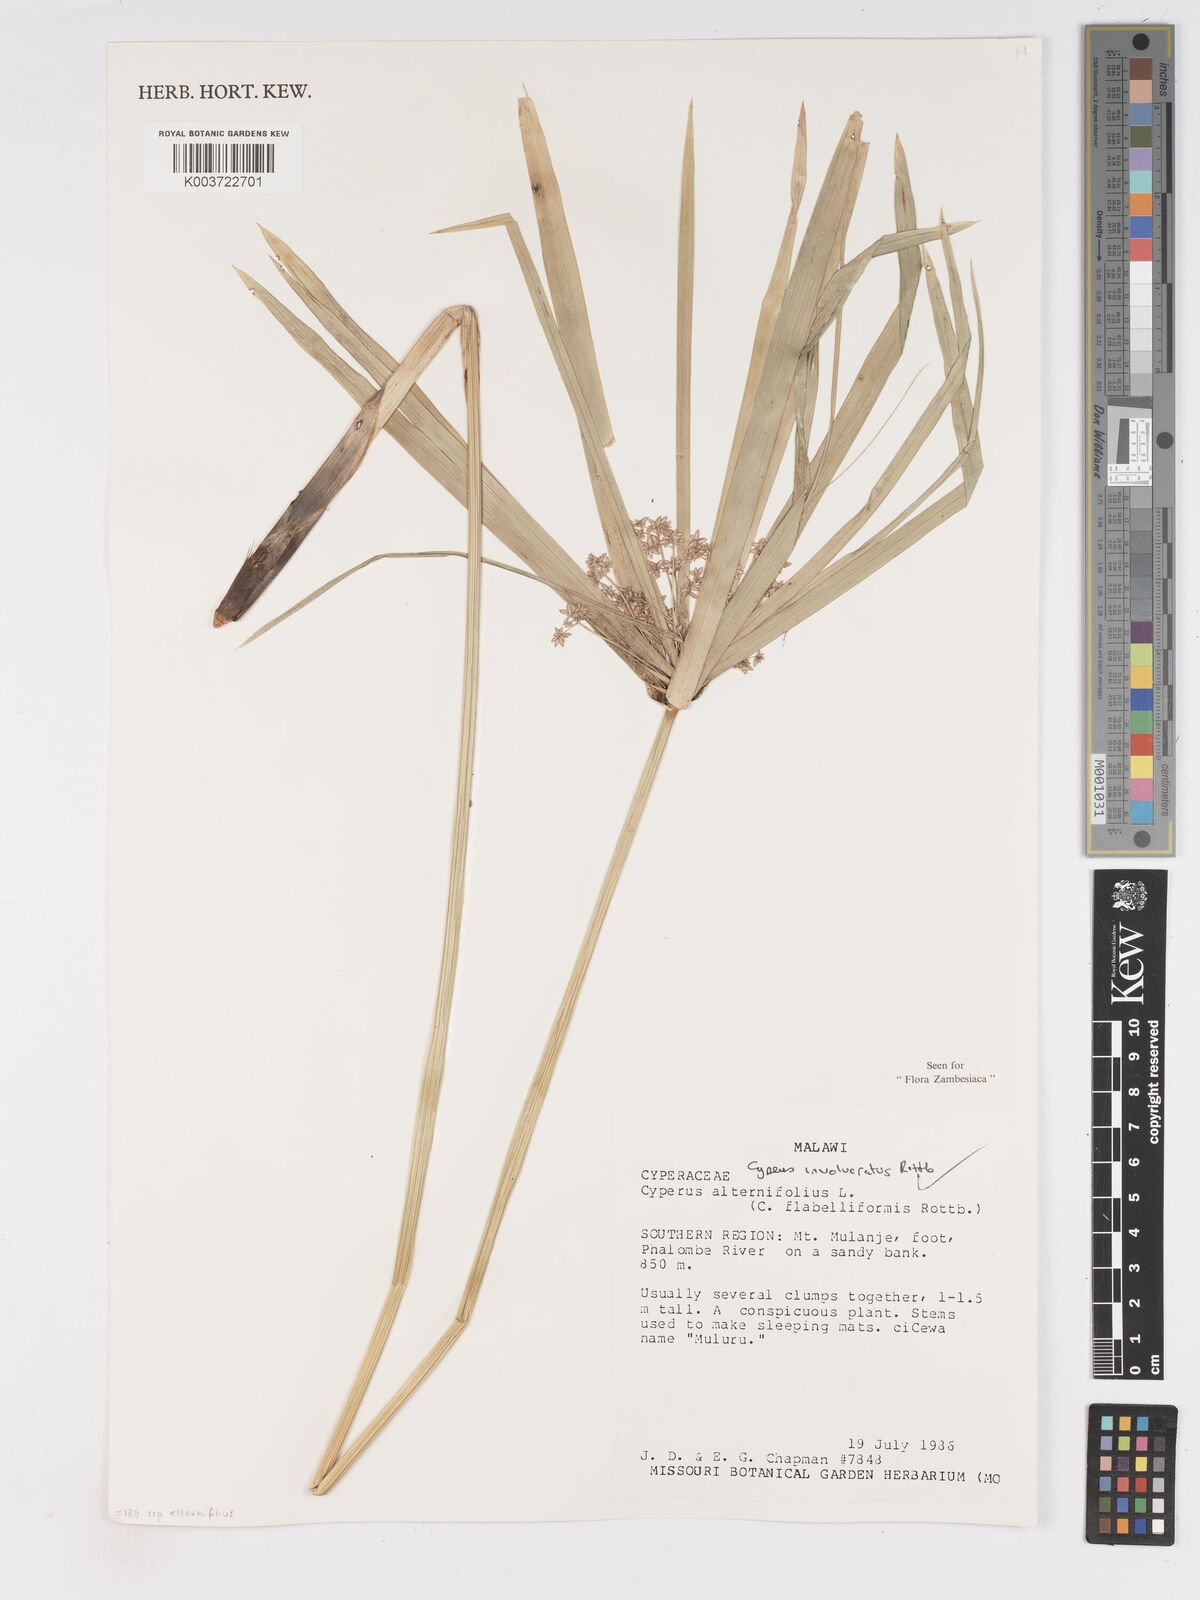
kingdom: Plantae
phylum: Tracheophyta
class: Liliopsida
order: Poales
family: Cyperaceae
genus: Cyperus
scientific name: Cyperus alternifolius
